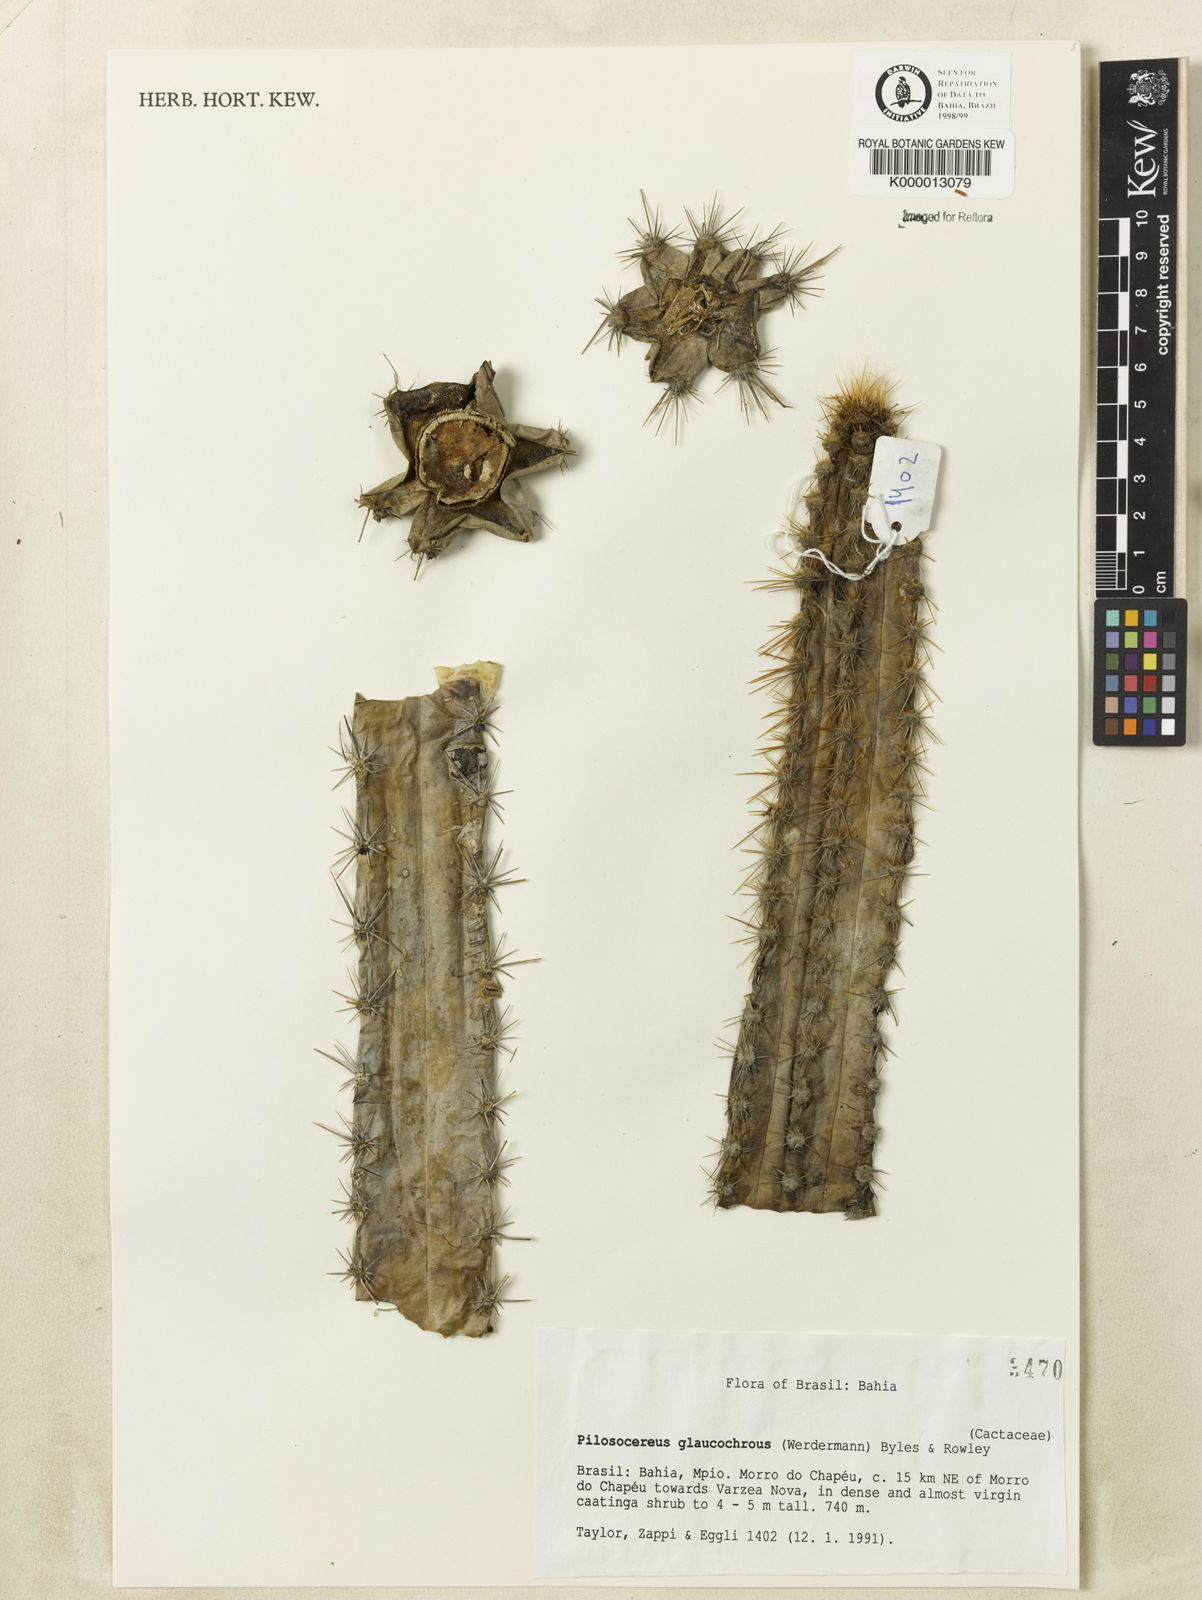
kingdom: Plantae
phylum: Tracheophyta
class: Magnoliopsida
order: Caryophyllales
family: Cactaceae
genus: Pilosocereus
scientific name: Pilosocereus glaucochrous
